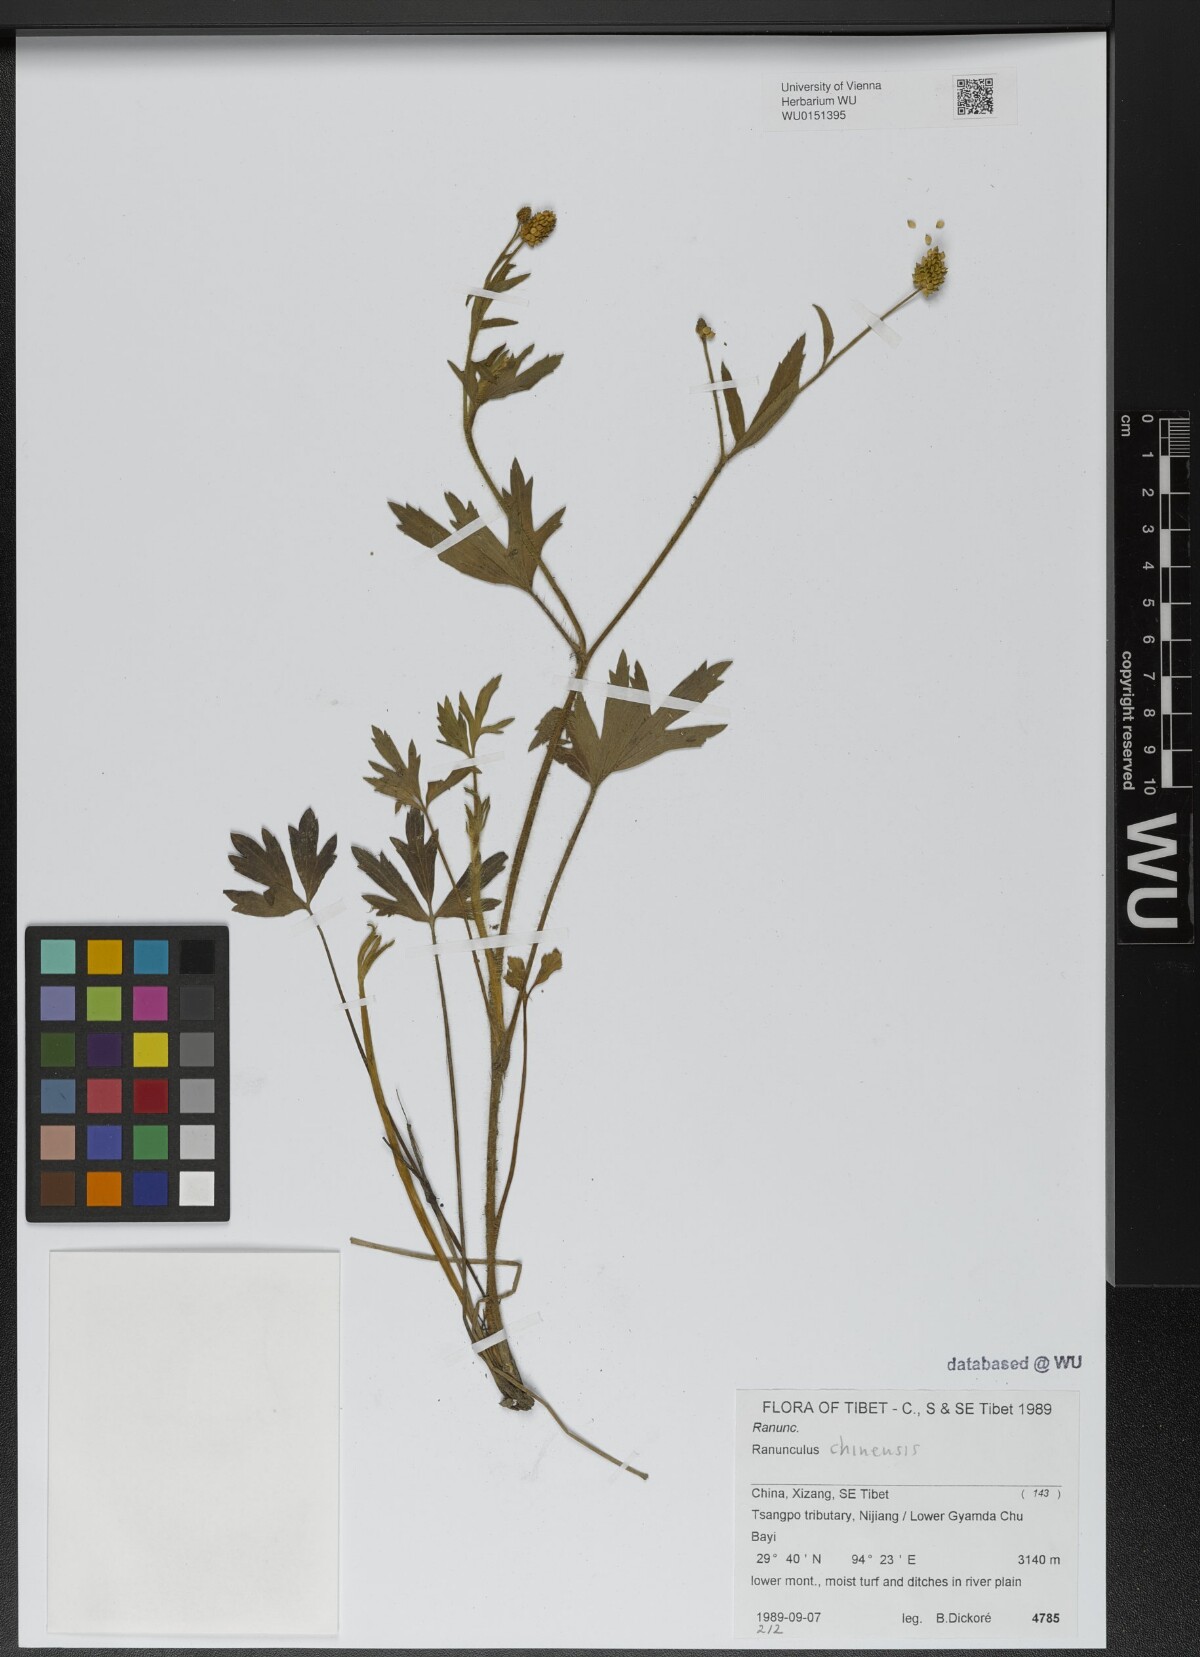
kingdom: Plantae
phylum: Tracheophyta
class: Magnoliopsida
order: Ranunculales
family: Ranunculaceae
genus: Ranunculus
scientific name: Ranunculus chinensis
